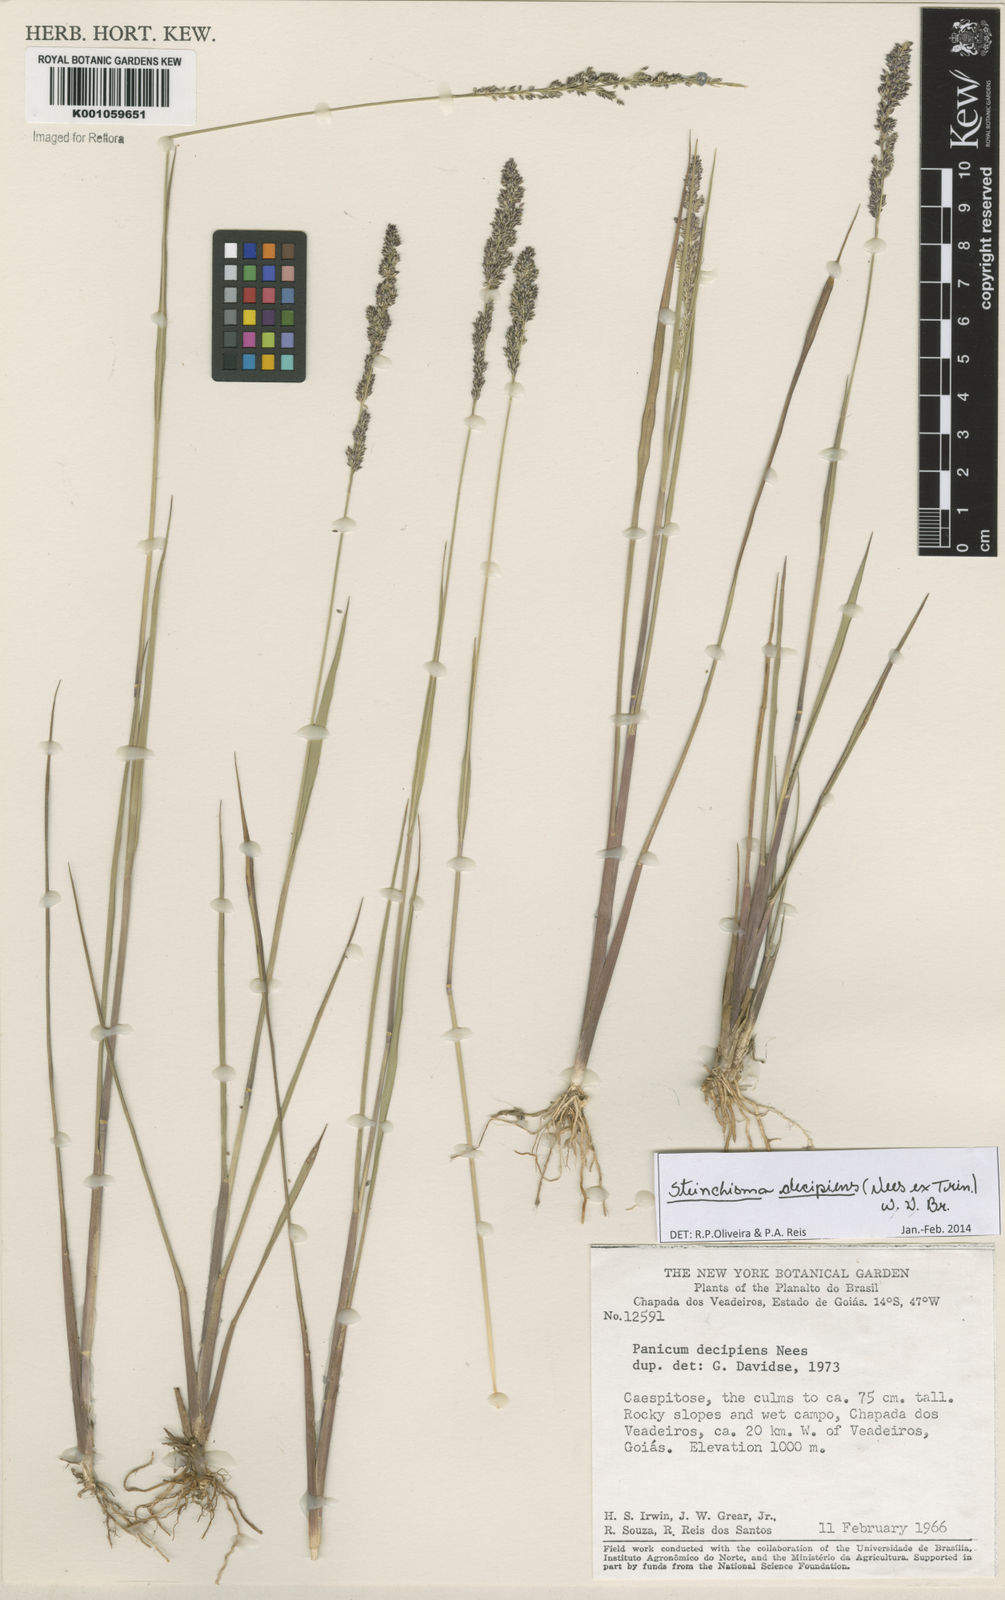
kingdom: Plantae
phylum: Tracheophyta
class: Liliopsida
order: Poales
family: Poaceae
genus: Steinchisma
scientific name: Steinchisma decipiens
